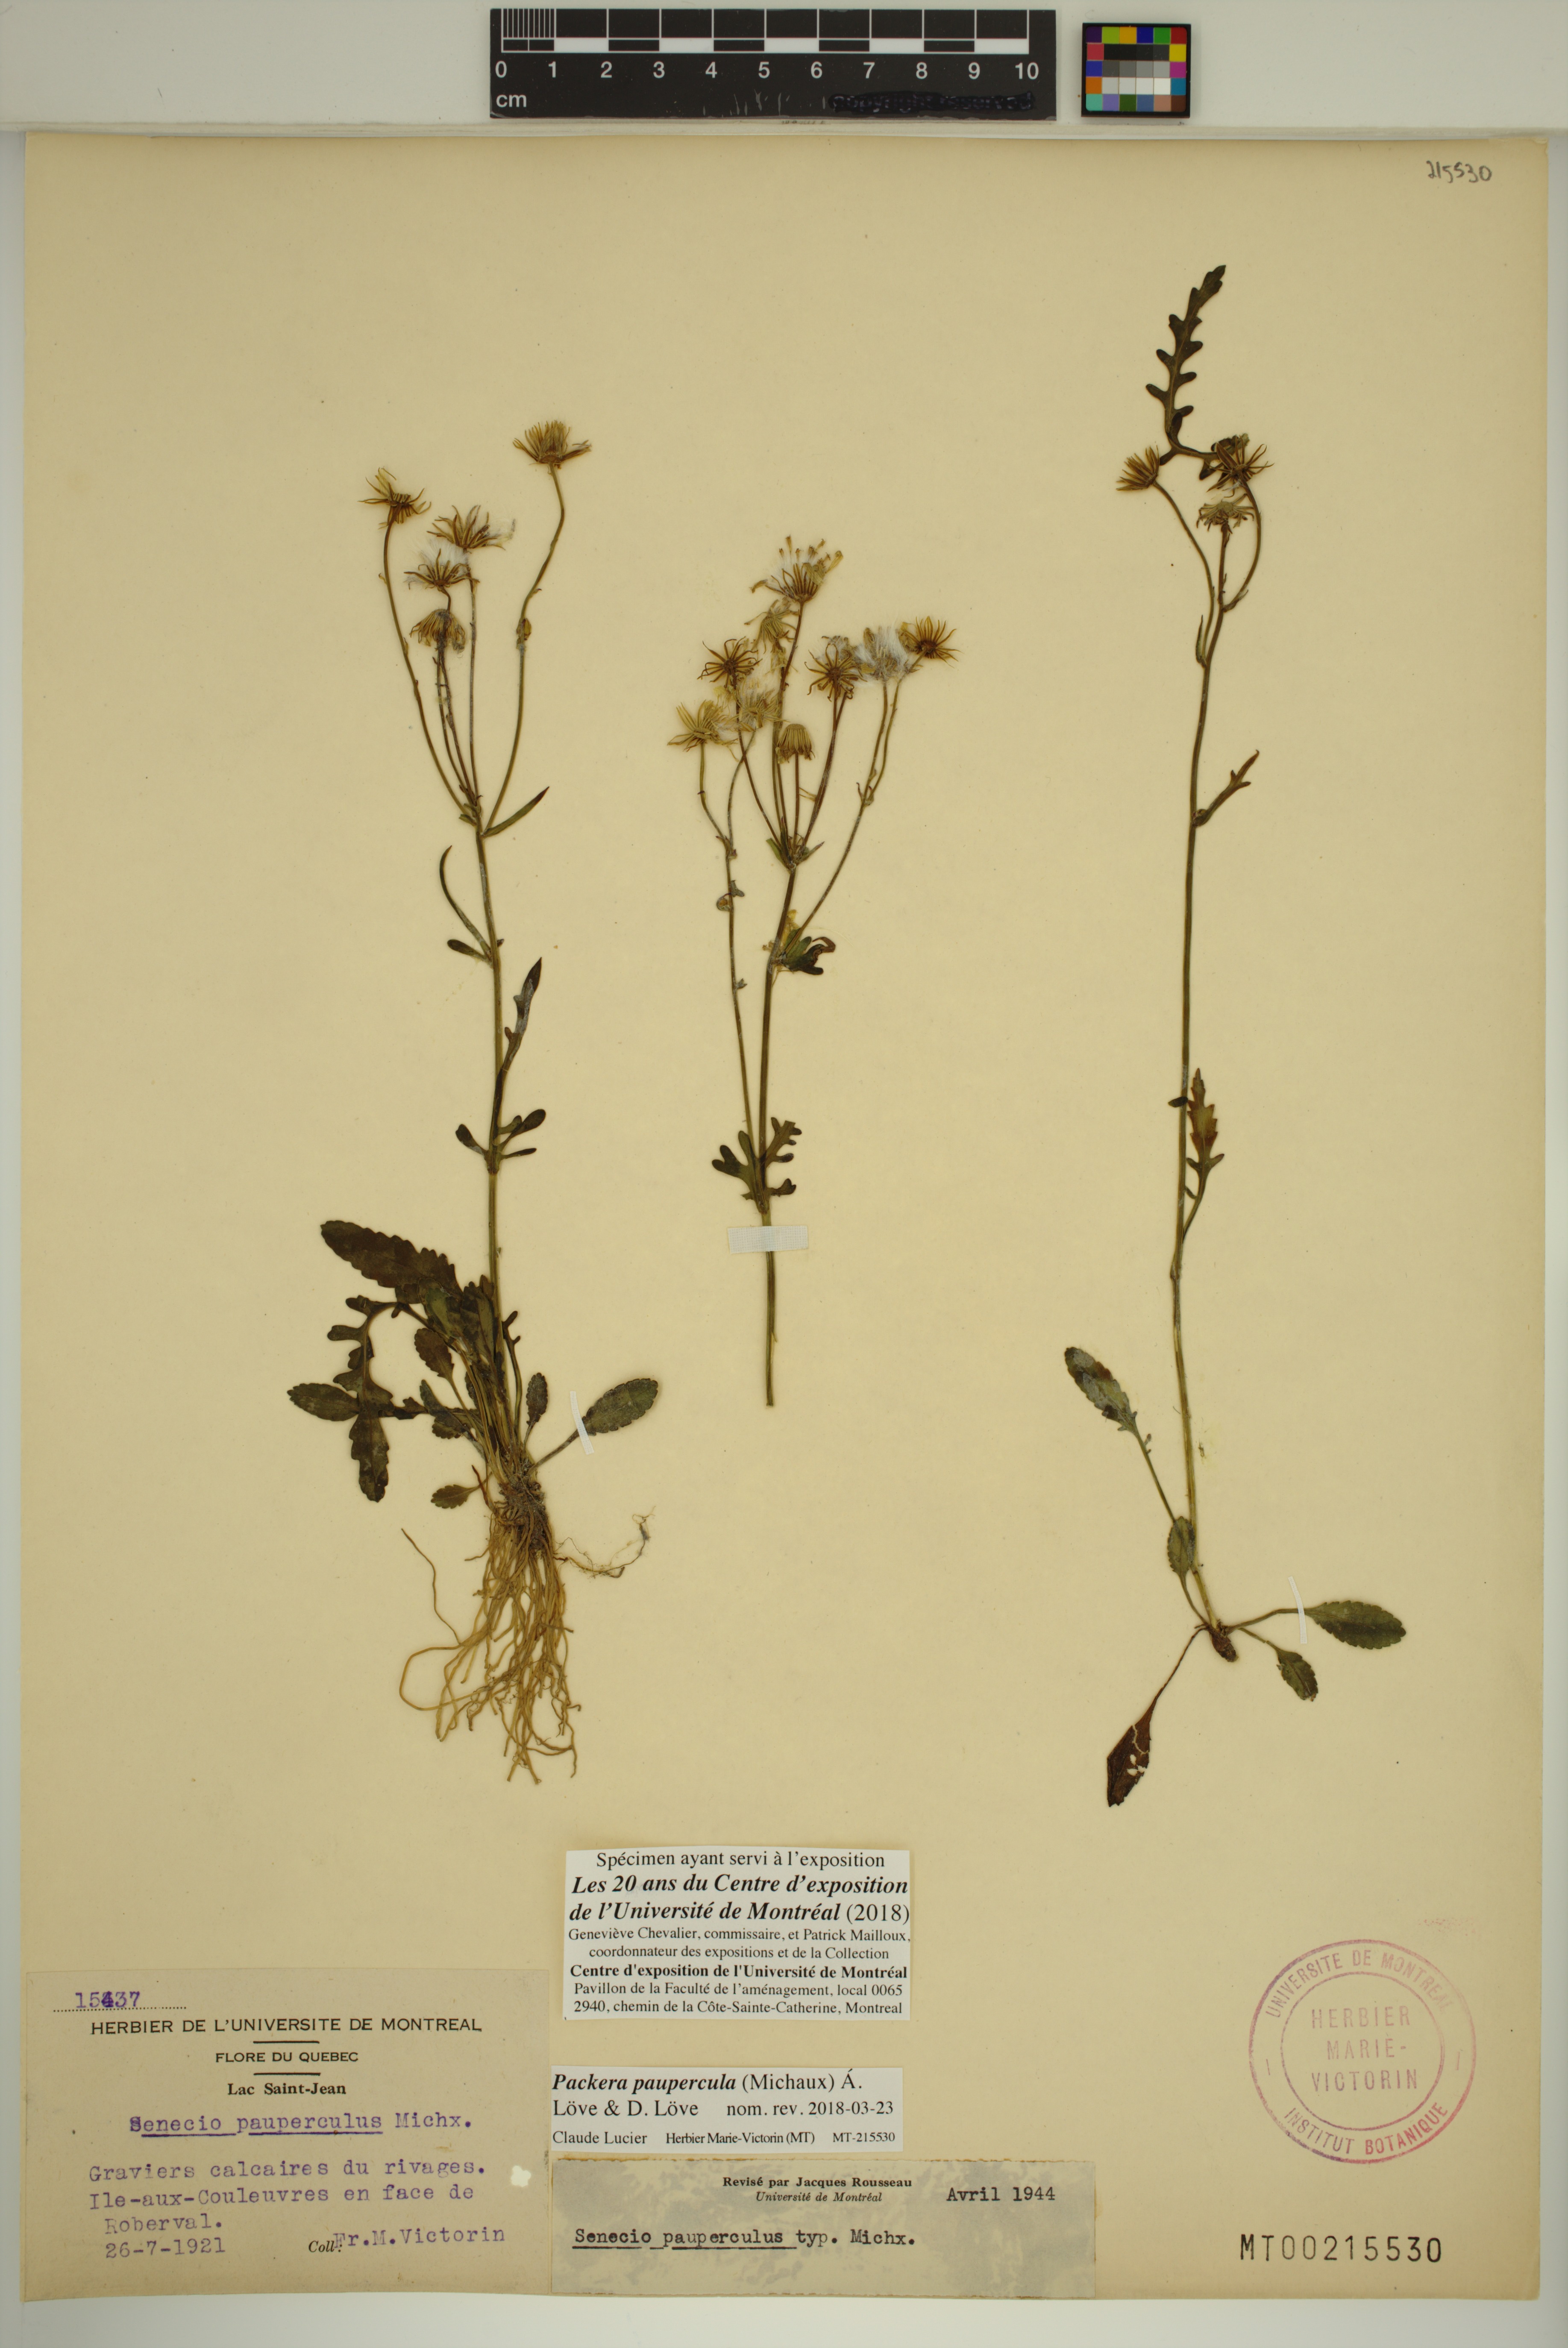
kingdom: Plantae
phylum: Tracheophyta
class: Magnoliopsida
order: Asterales
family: Asteraceae
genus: Packera
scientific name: Packera paupercula
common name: Balsam groundsel
